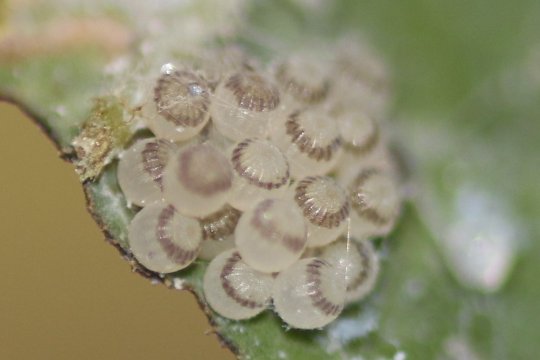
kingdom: Animalia
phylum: Arthropoda
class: Insecta
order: Lepidoptera
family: Nymphalidae
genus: Asterocampa
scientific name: Asterocampa celtis
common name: Hackberry Emperor
